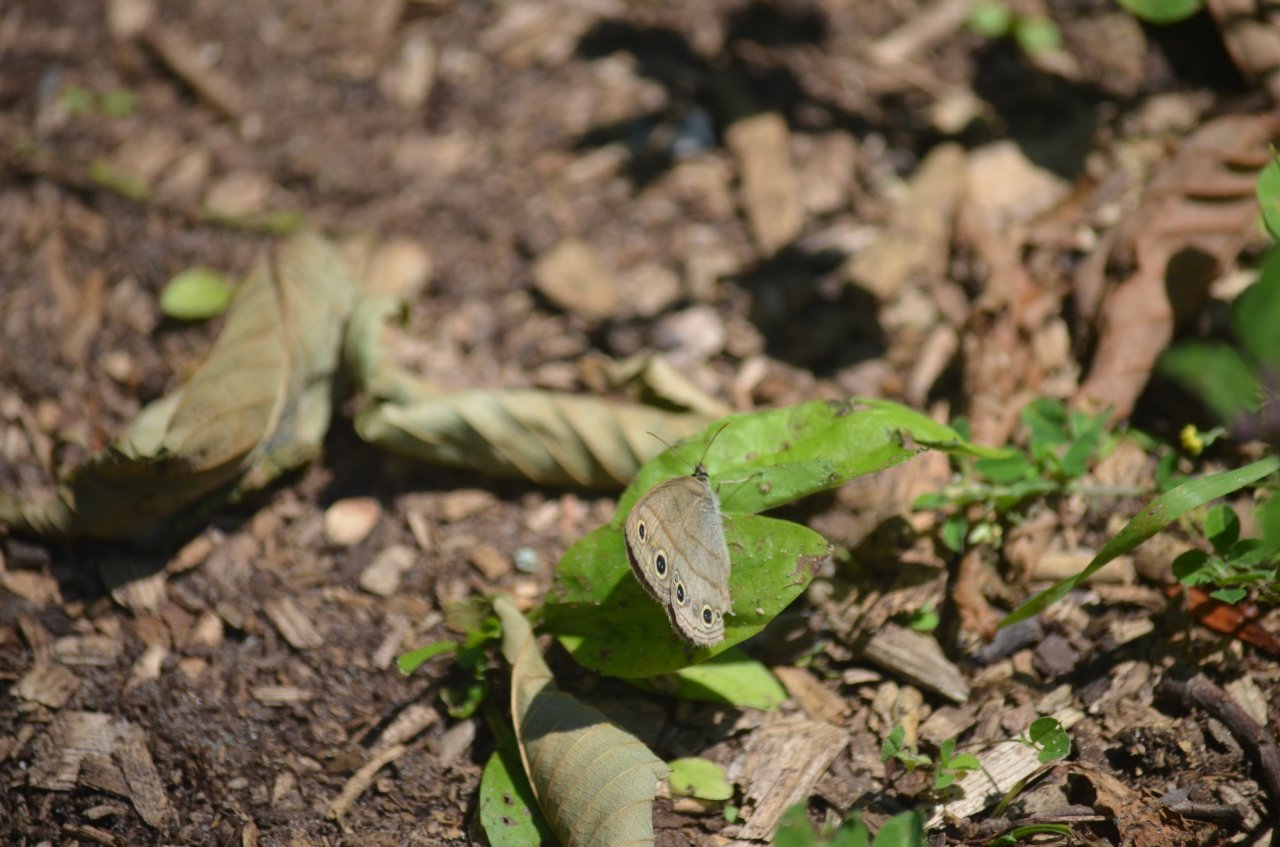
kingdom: Animalia
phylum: Arthropoda
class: Insecta
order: Lepidoptera
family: Nymphalidae
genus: Euptychia
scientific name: Euptychia cymela
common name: Little Wood Satyr
